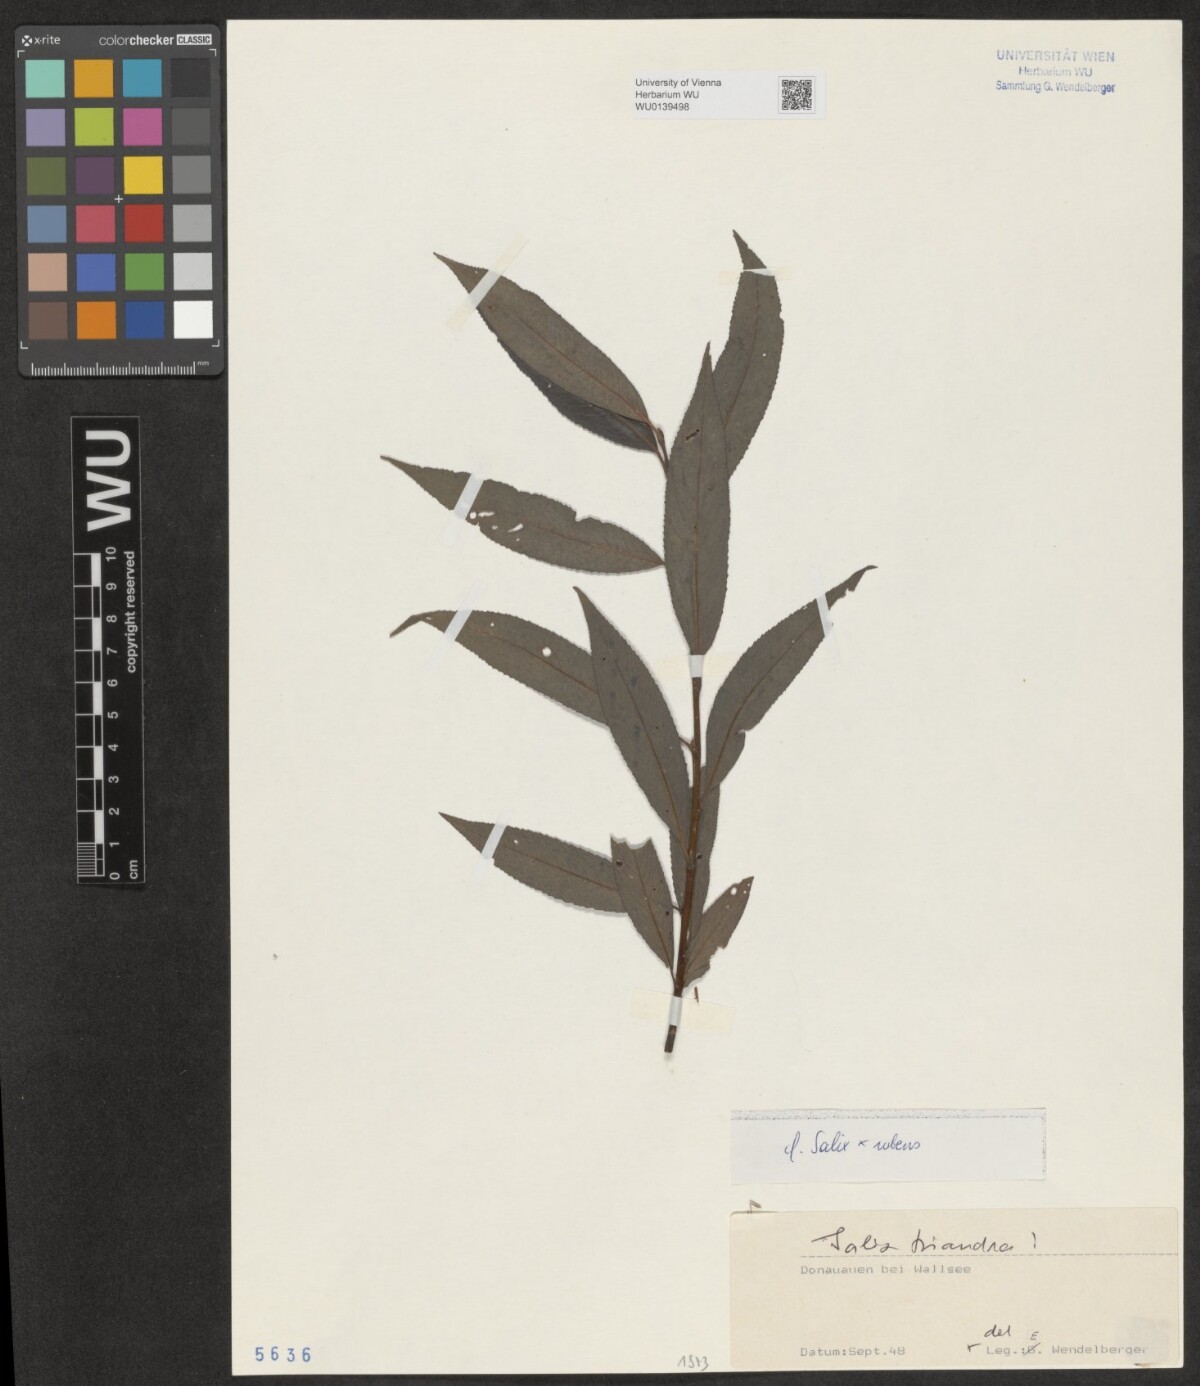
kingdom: Plantae
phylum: Tracheophyta
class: Magnoliopsida
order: Malpighiales
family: Salicaceae
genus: Salix
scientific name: Salix rubens
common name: Hybrid crack willow
